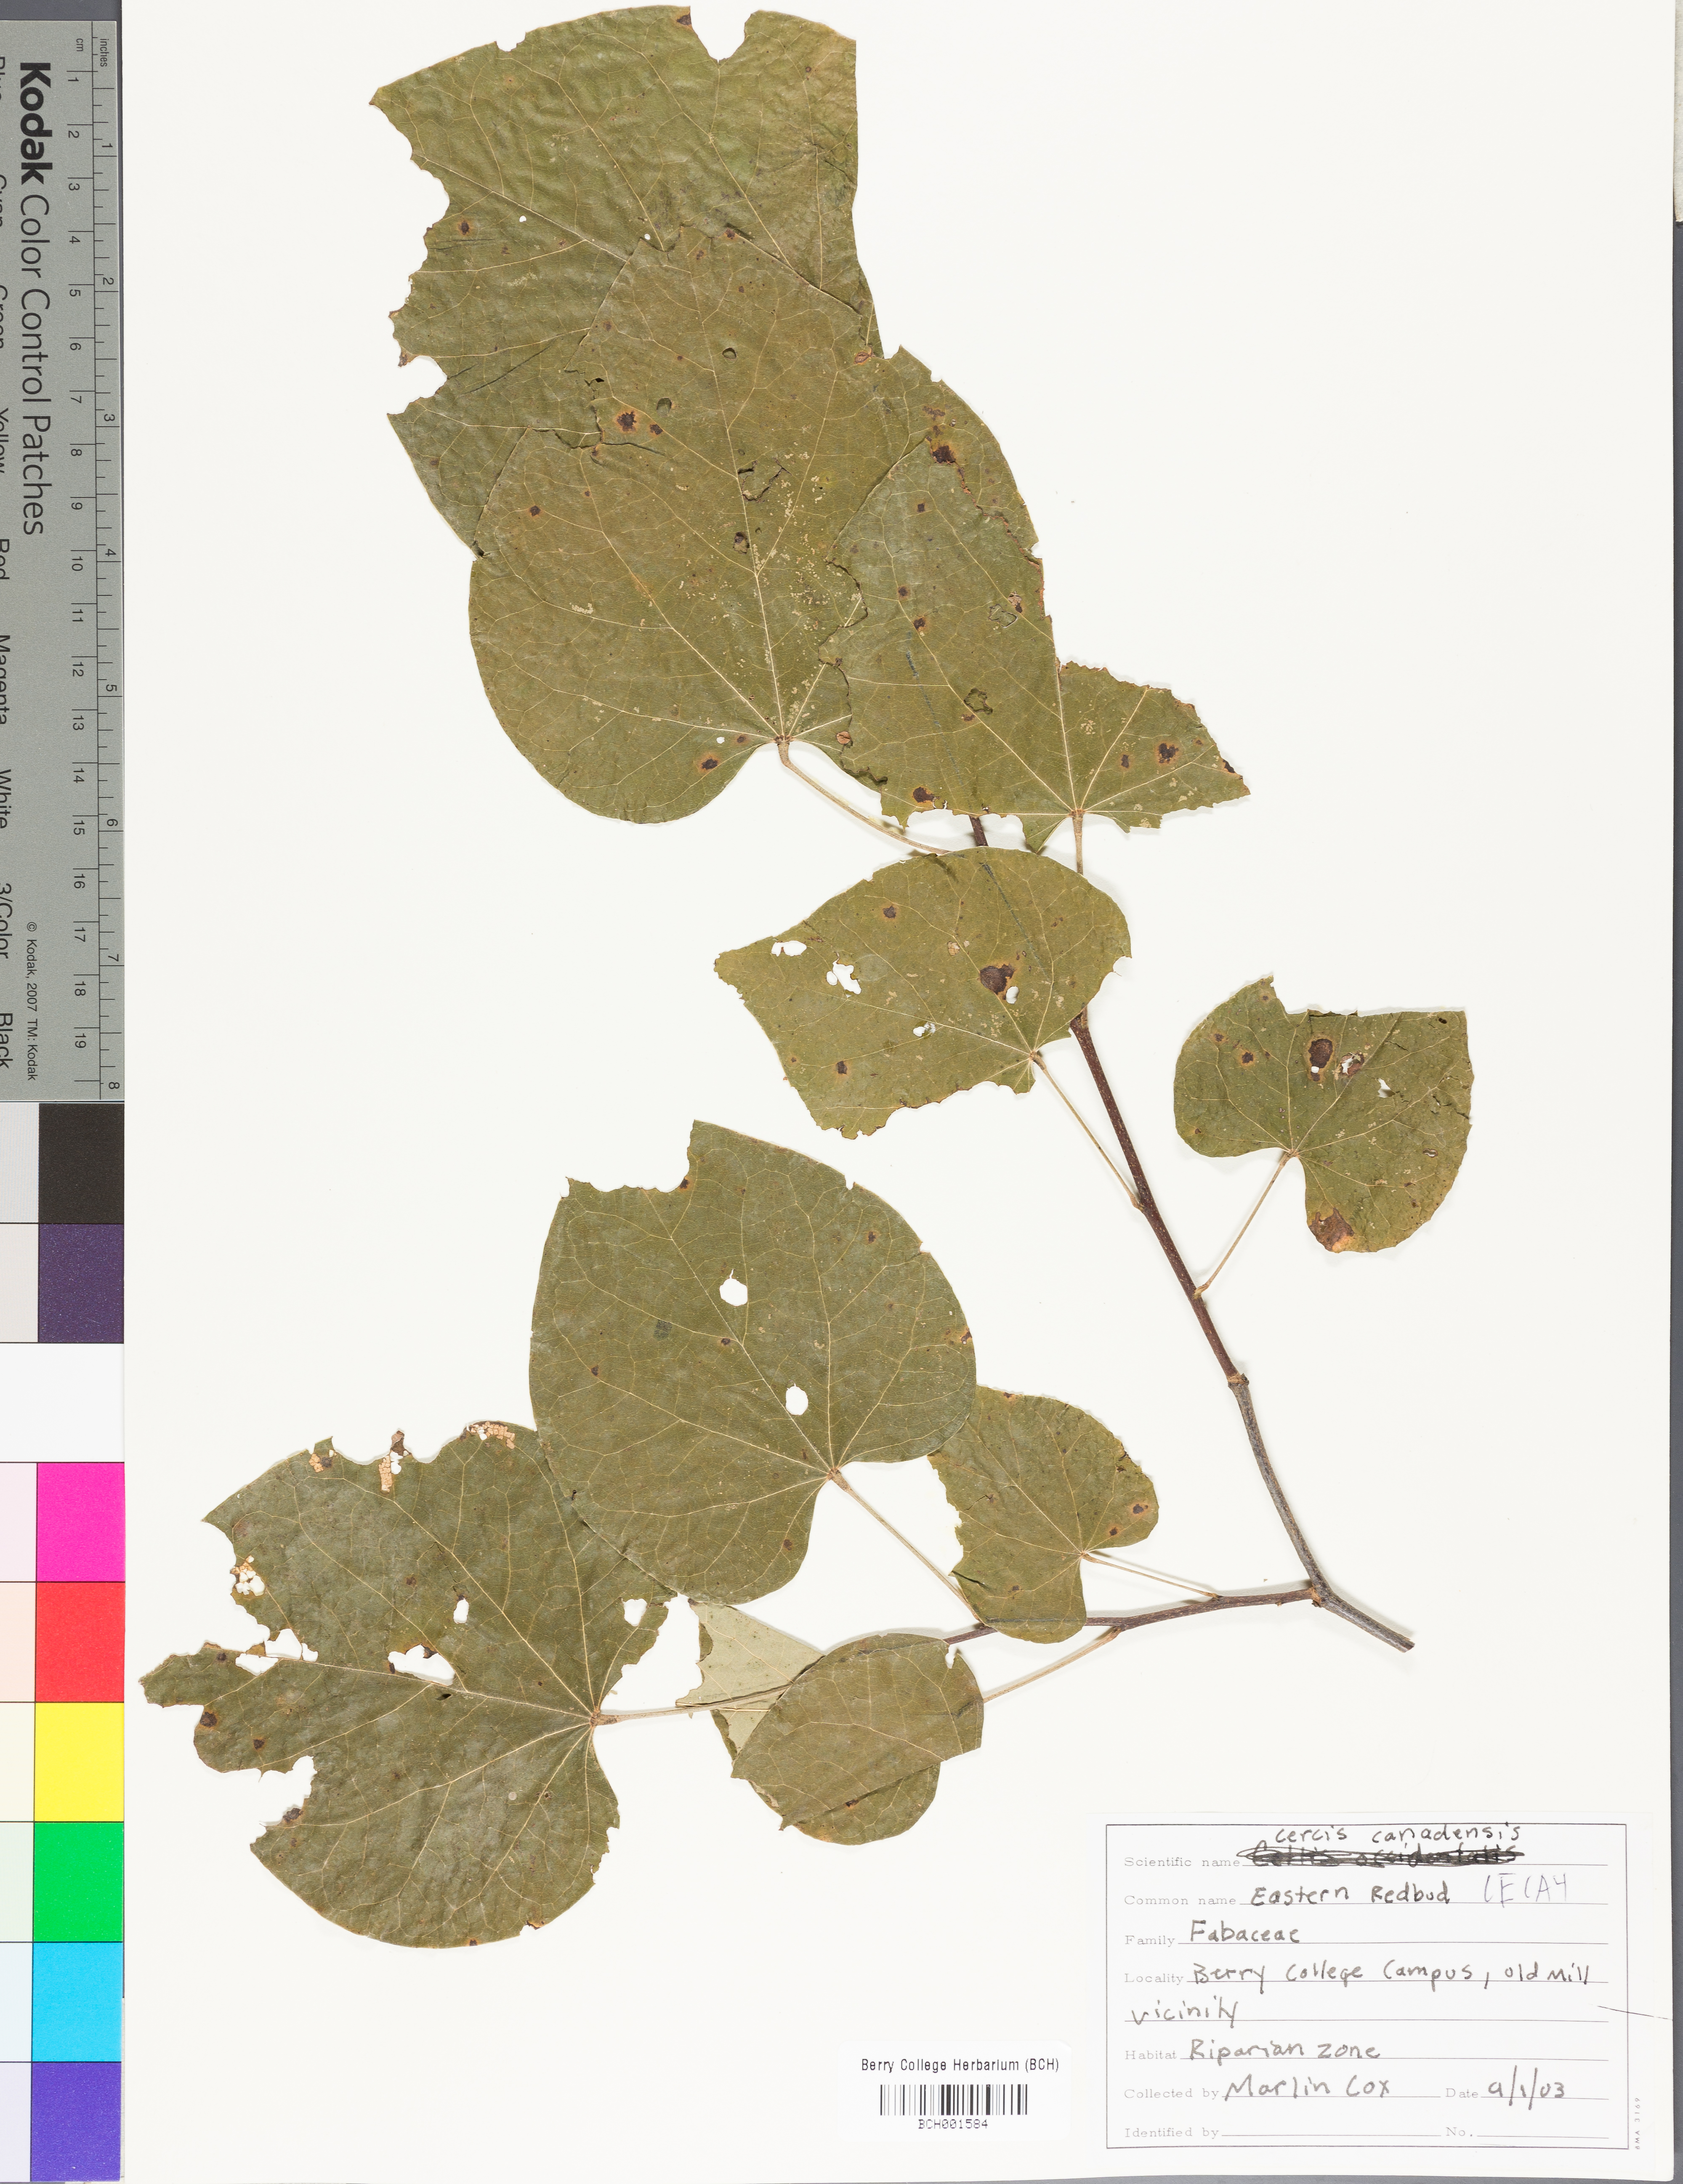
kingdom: Plantae
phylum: Tracheophyta
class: Magnoliopsida
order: Fabales
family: Fabaceae
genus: Cercis
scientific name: Cercis canadensis
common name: Eastern redbud
